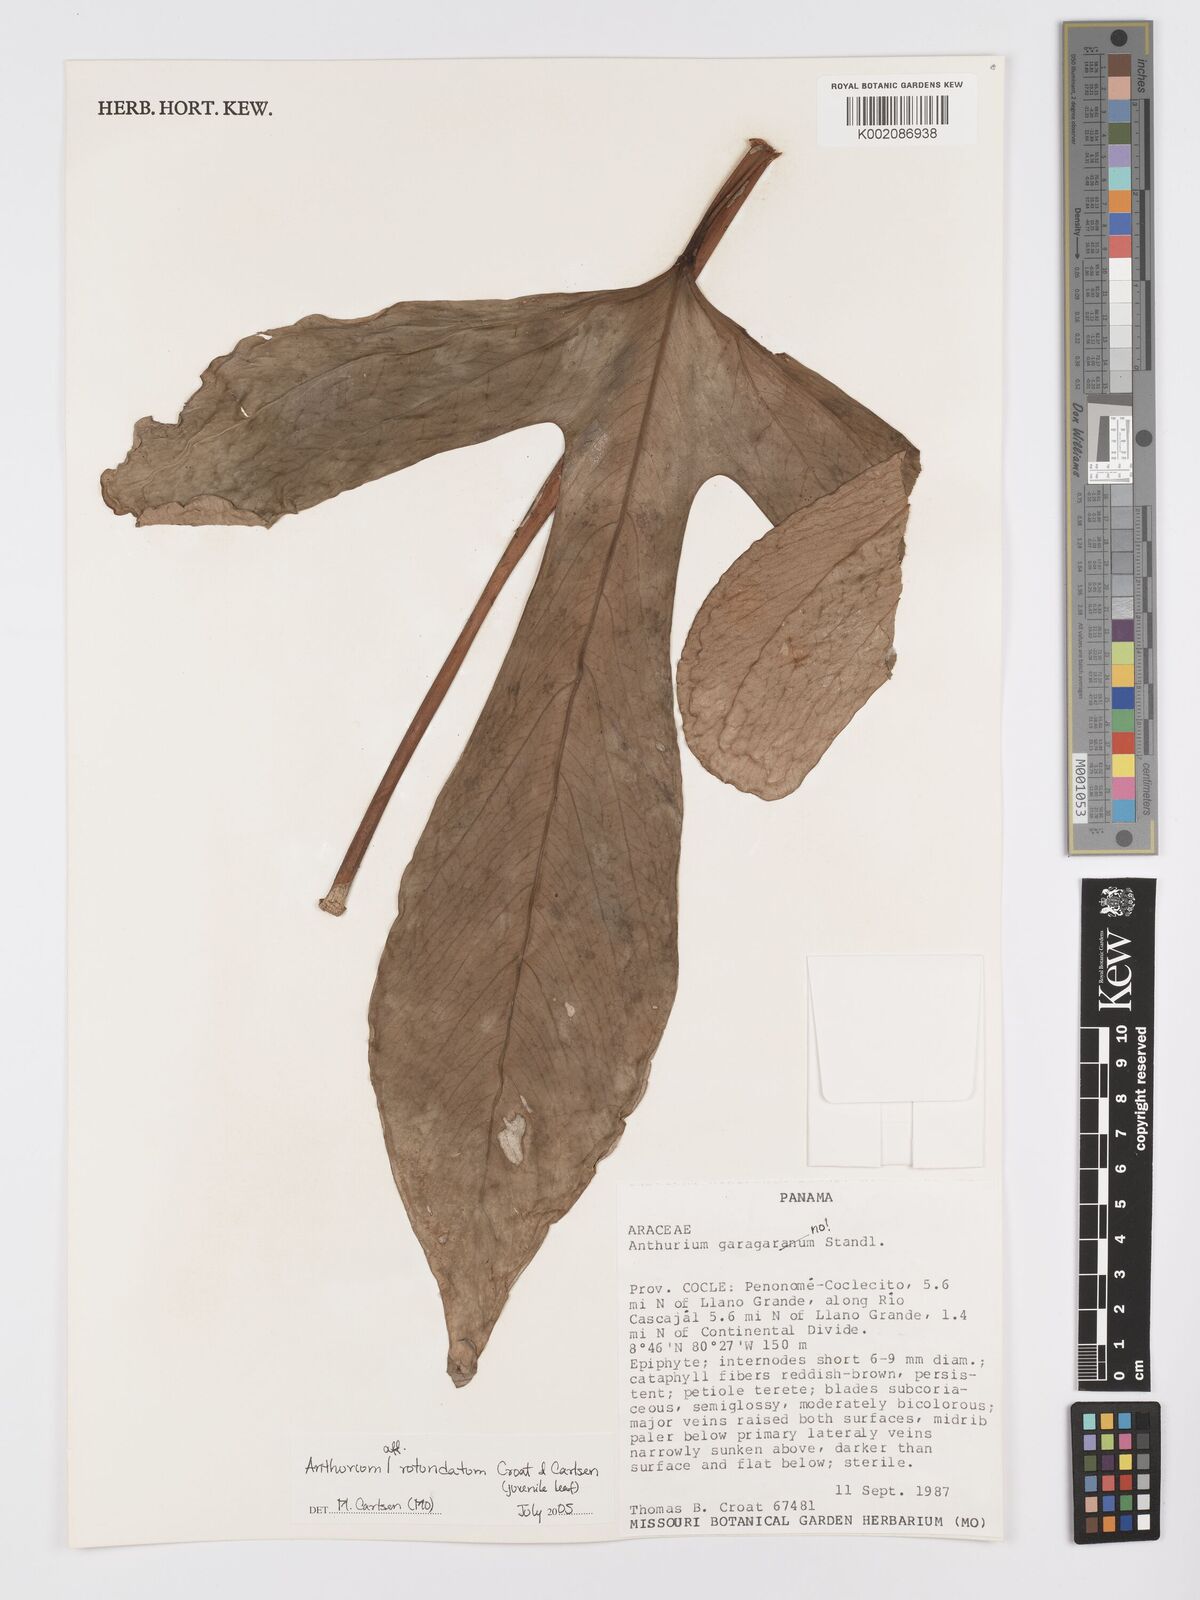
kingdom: Plantae
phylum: Tracheophyta
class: Liliopsida
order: Alismatales
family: Araceae
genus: Anthurium
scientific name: Anthurium rotundatum
